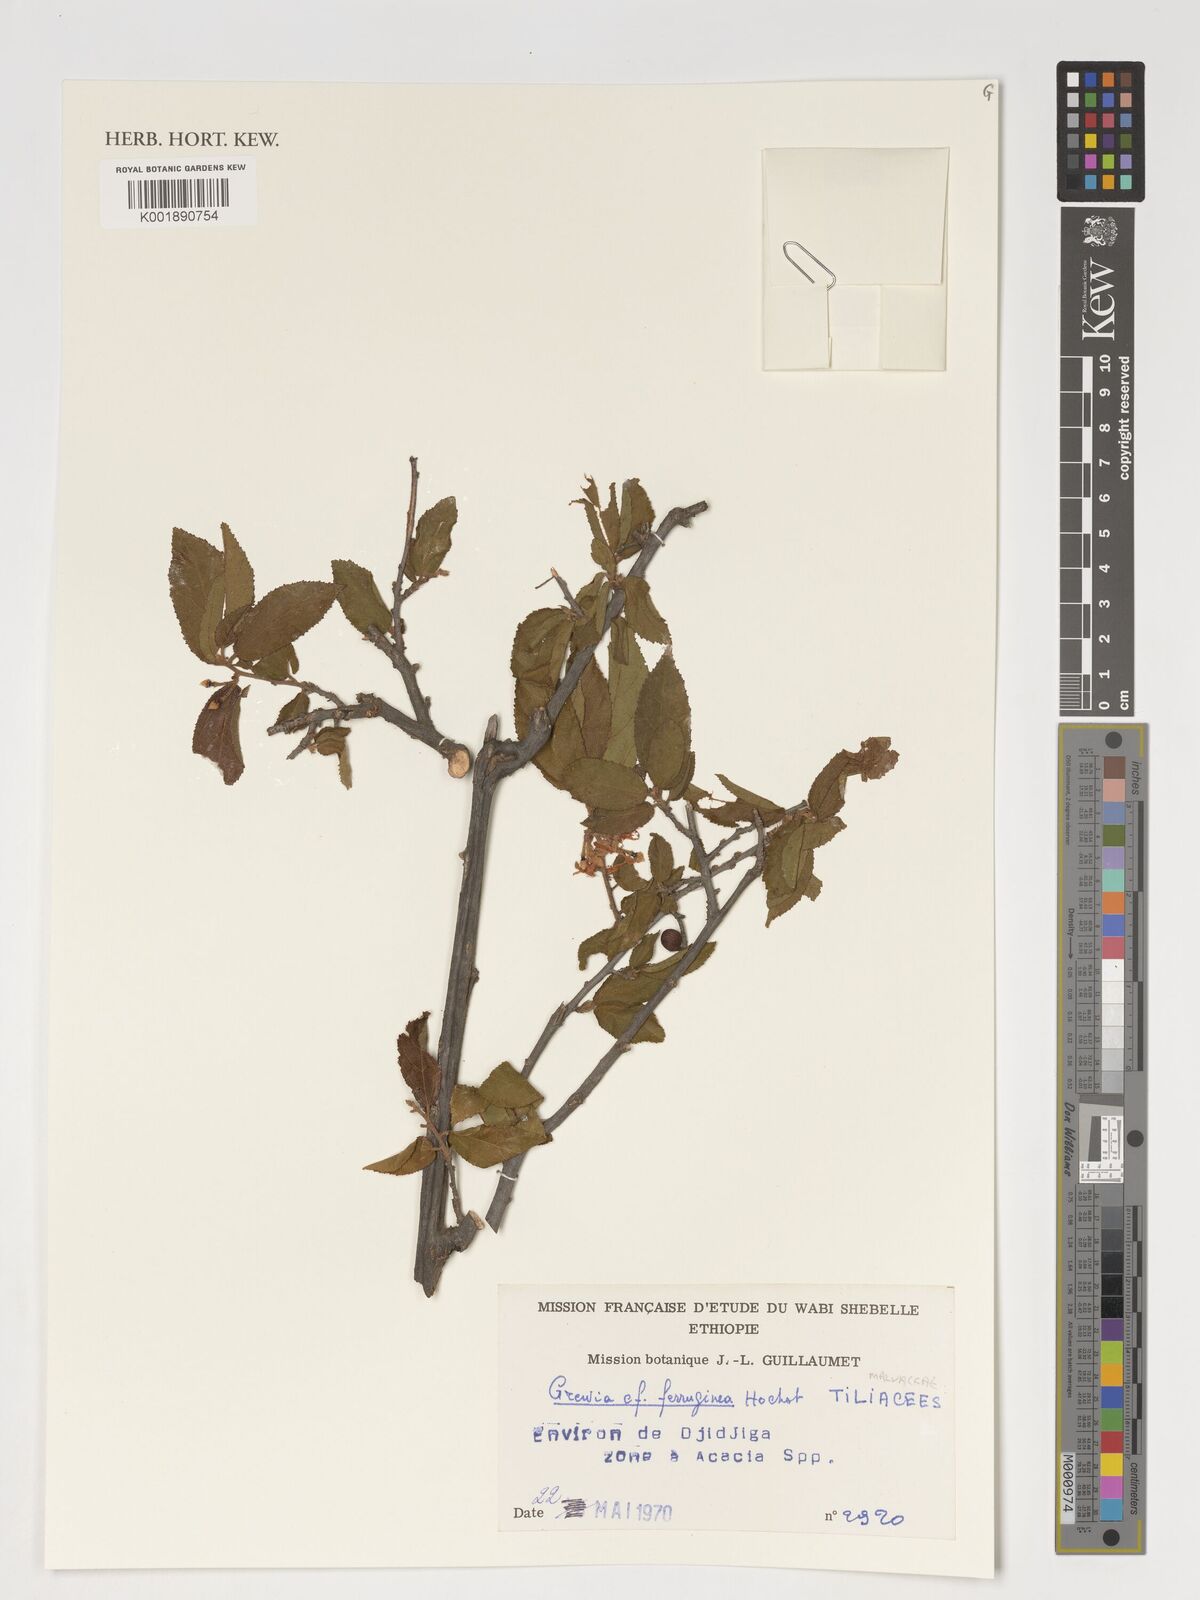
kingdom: Plantae
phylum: Tracheophyta
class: Magnoliopsida
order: Malvales
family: Malvaceae
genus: Grewia
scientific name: Grewia ferruginea
